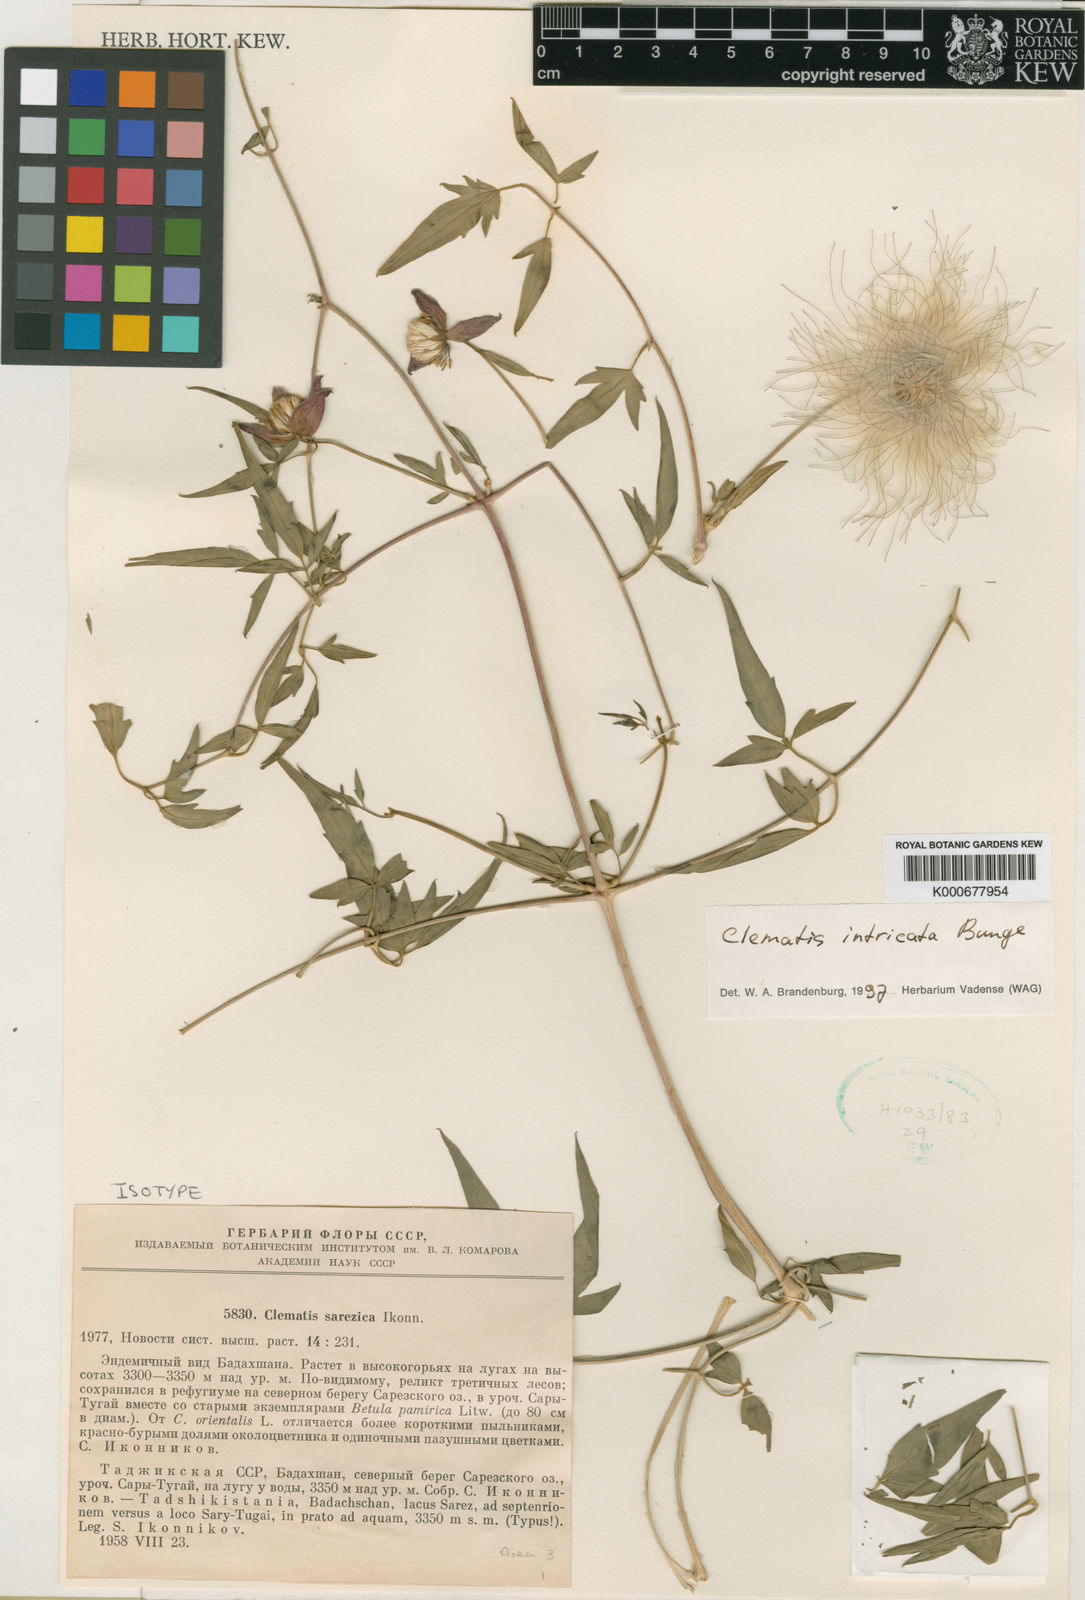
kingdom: Plantae
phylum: Tracheophyta
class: Magnoliopsida
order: Ranunculales
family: Ranunculaceae
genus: Clematis
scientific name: Clematis intricata
